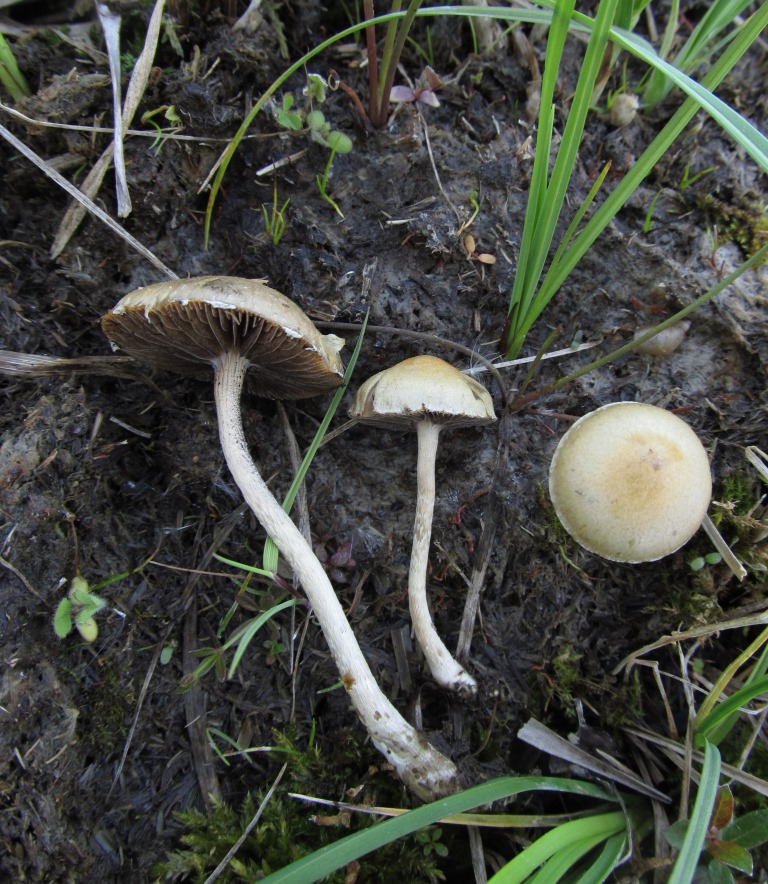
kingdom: Fungi
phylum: Basidiomycota
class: Agaricomycetes
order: Agaricales
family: Strophariaceae
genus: Deconica
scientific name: Deconica merdaria
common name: møg-stråhat
